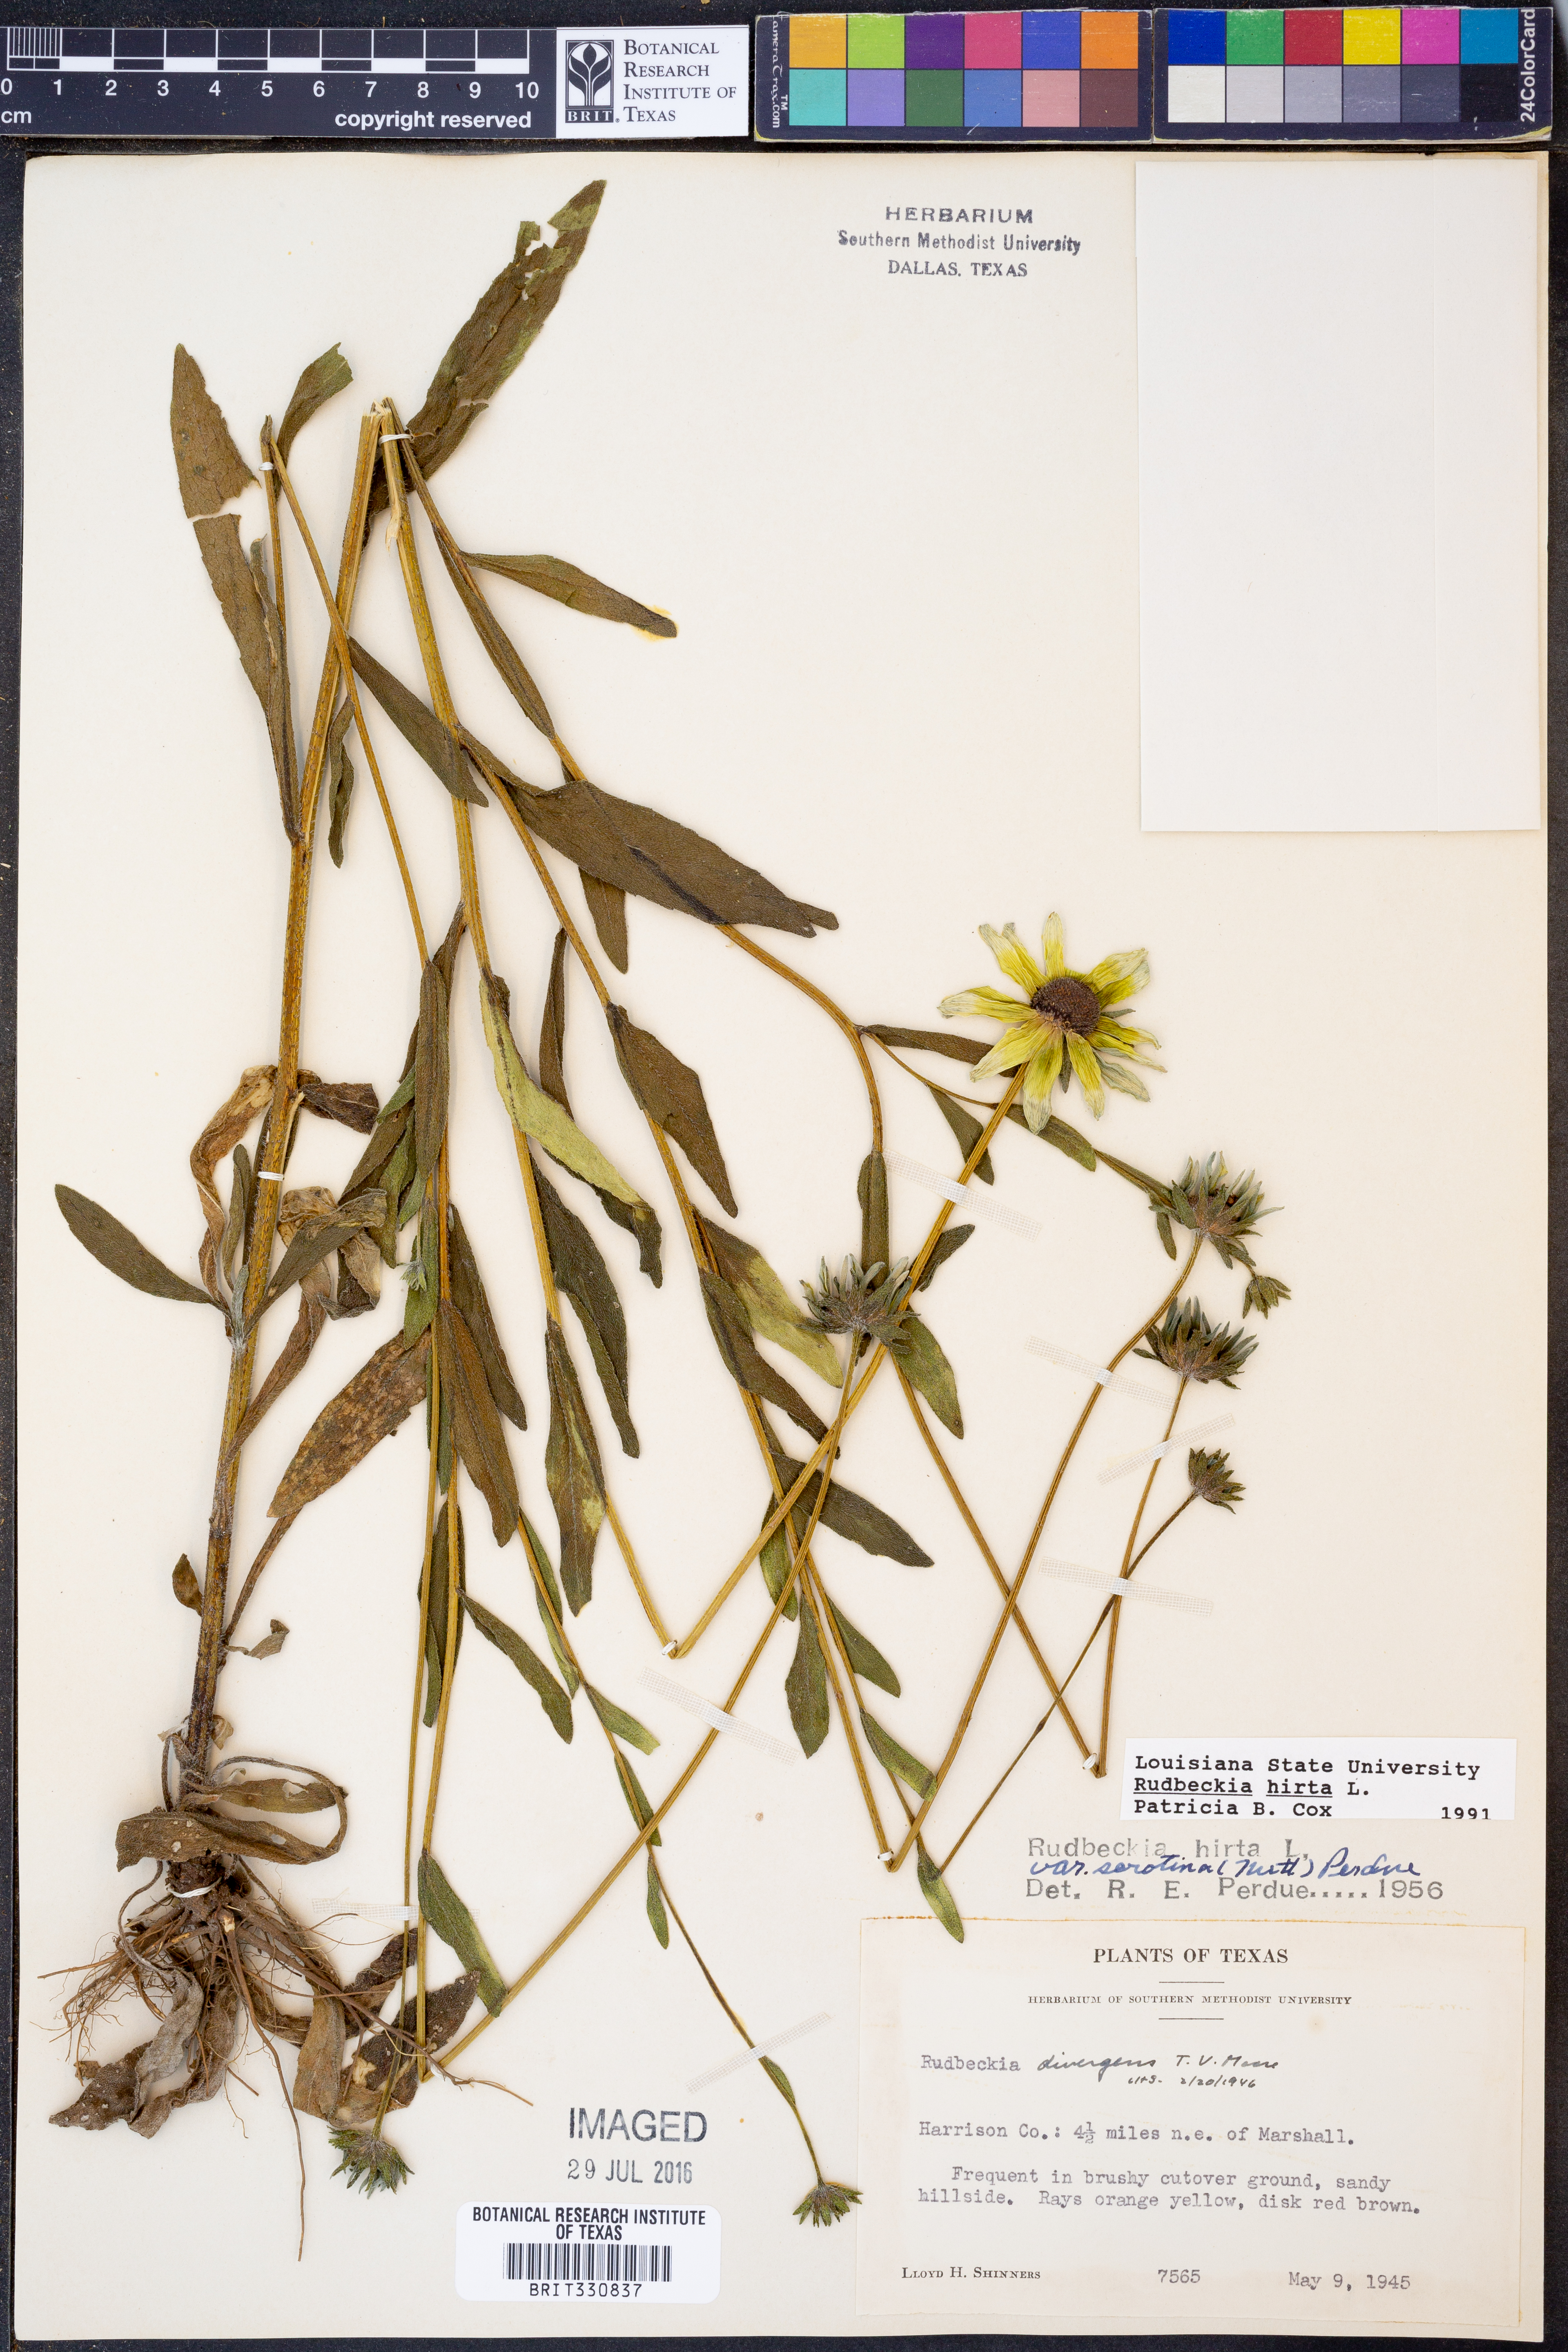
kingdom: Plantae
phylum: Tracheophyta
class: Magnoliopsida
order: Asterales
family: Asteraceae
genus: Rudbeckia
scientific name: Rudbeckia hirta
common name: Black-eyed-susan
